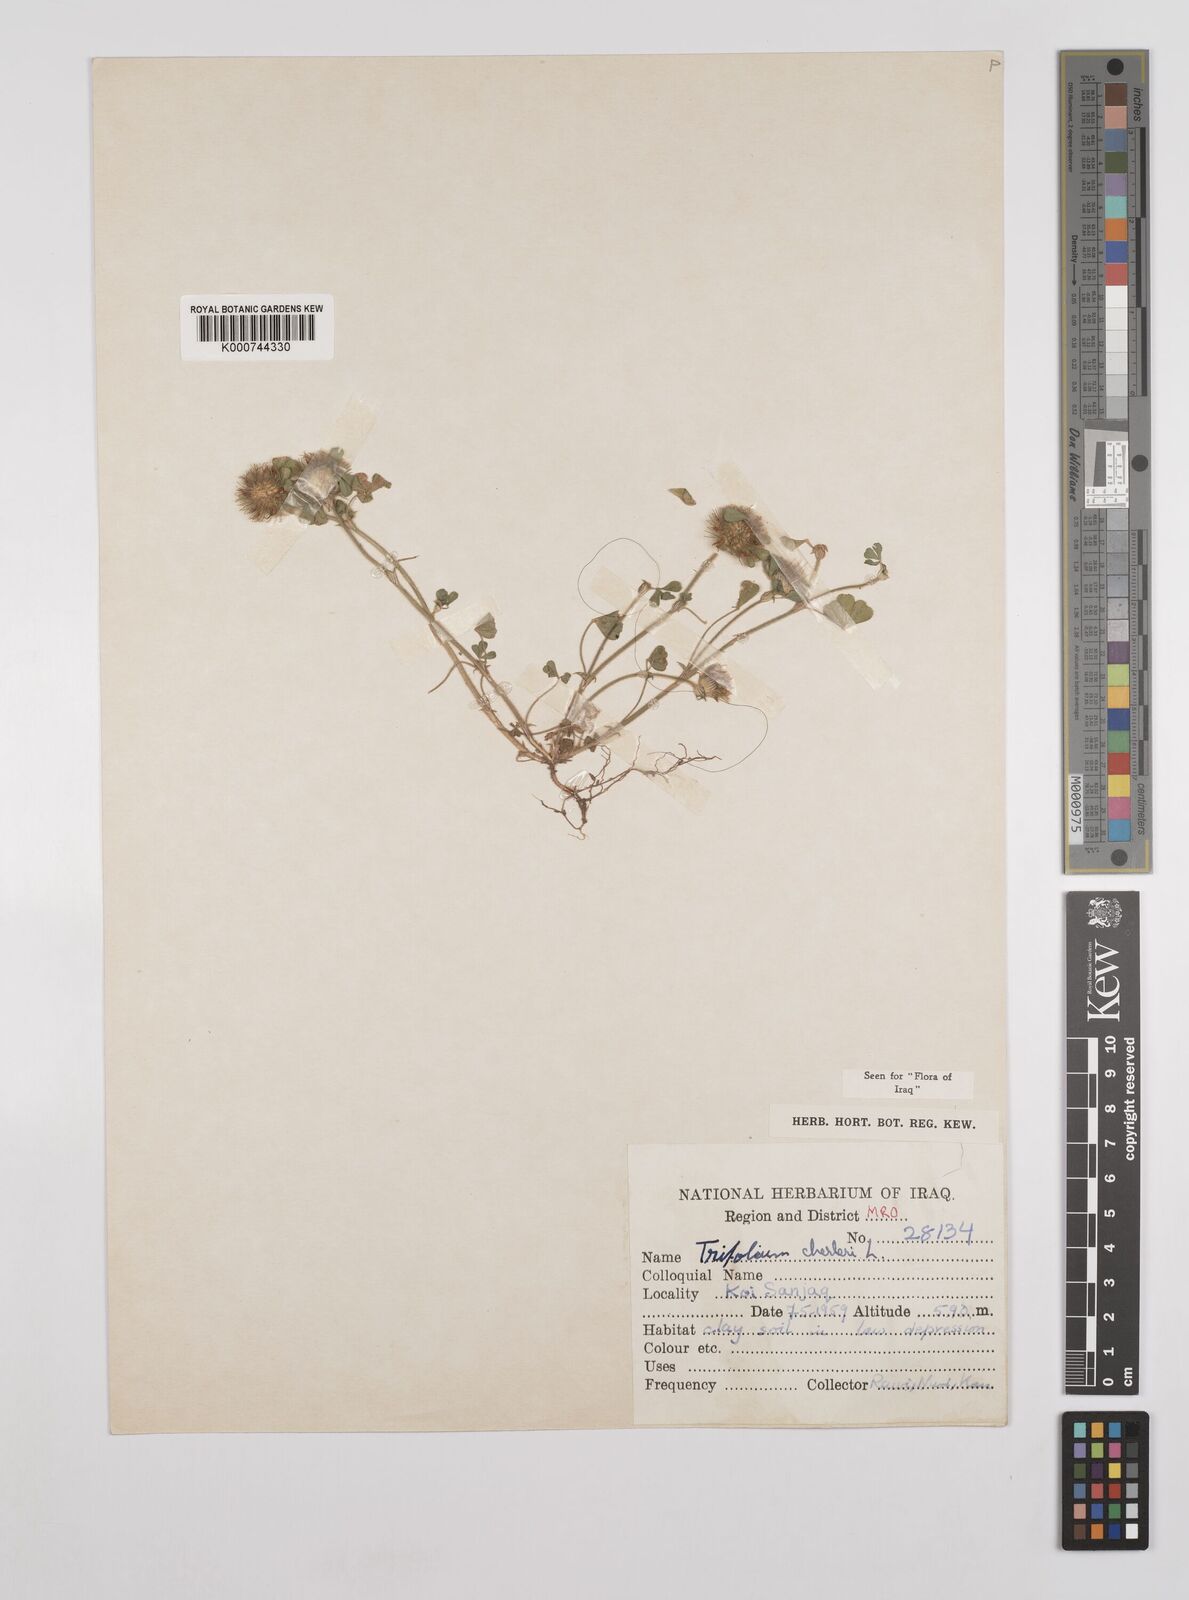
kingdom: Plantae
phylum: Tracheophyta
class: Magnoliopsida
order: Fabales
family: Fabaceae
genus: Trifolium
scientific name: Trifolium cherleri
